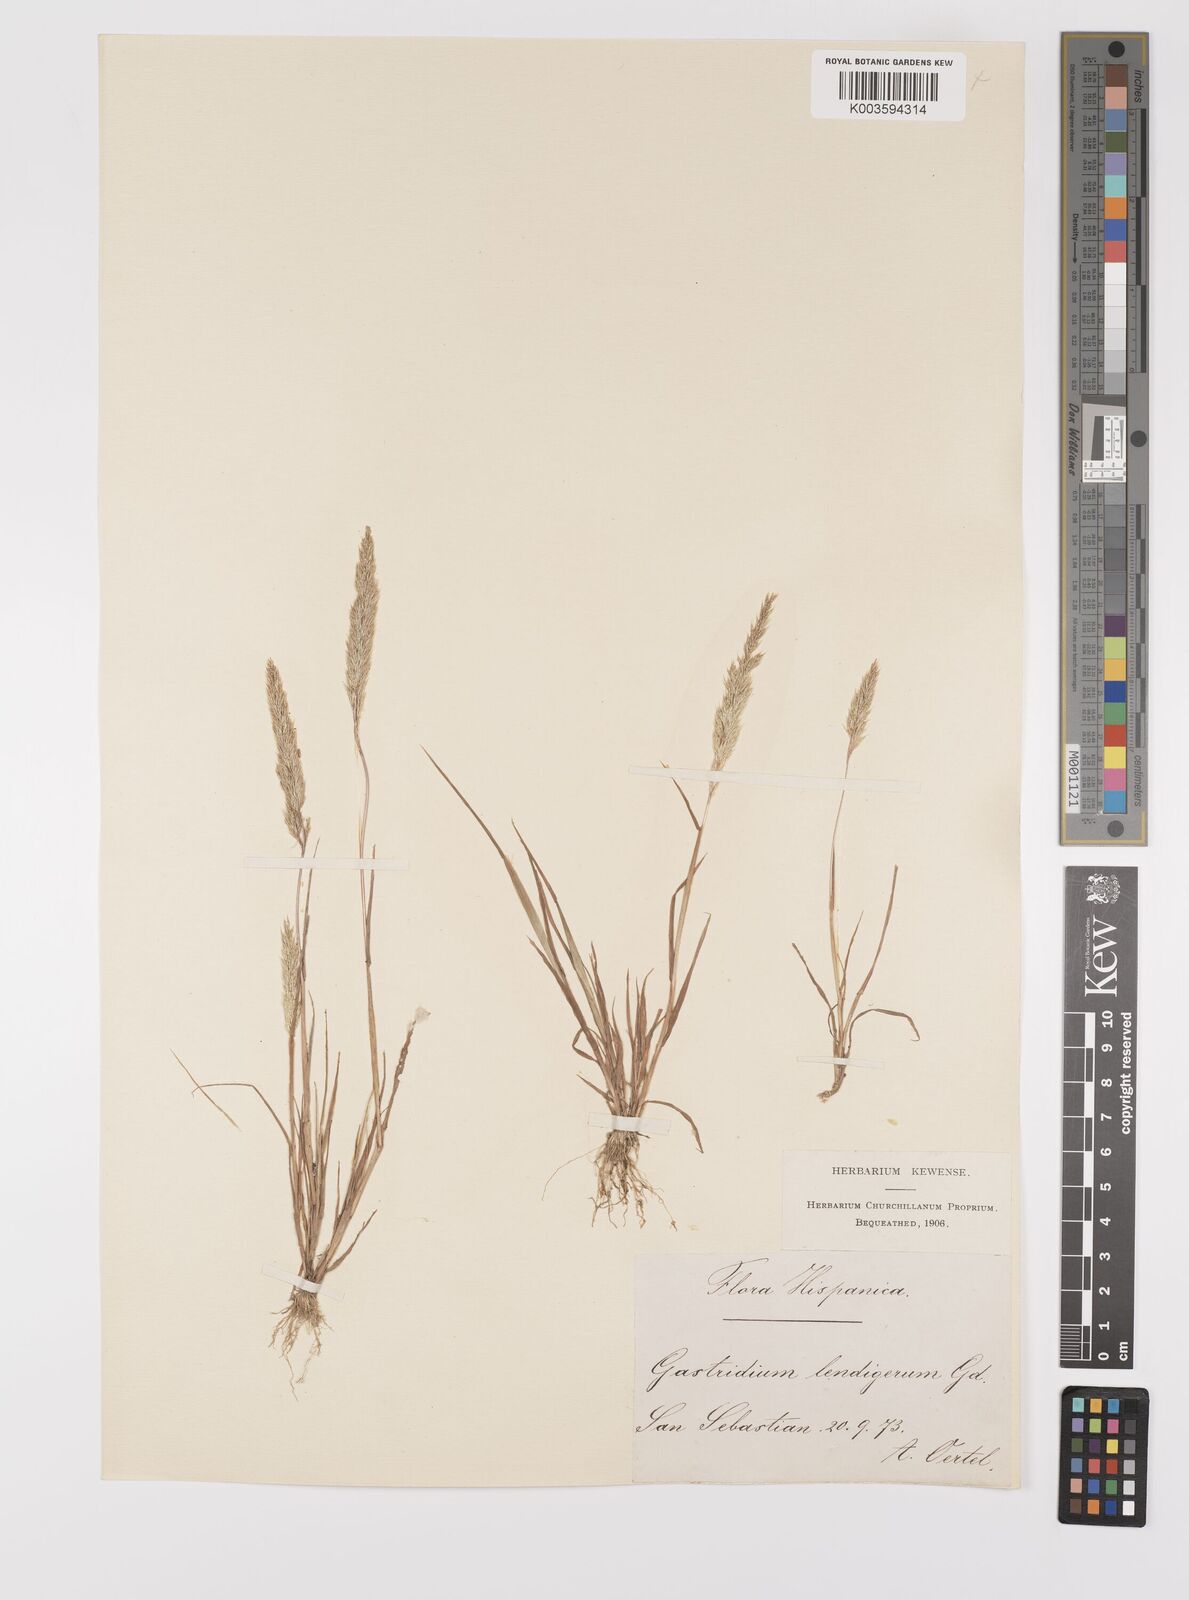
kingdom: Plantae
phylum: Tracheophyta
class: Liliopsida
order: Poales
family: Poaceae
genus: Gastridium
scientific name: Gastridium ventricosum
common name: Nit-grass
